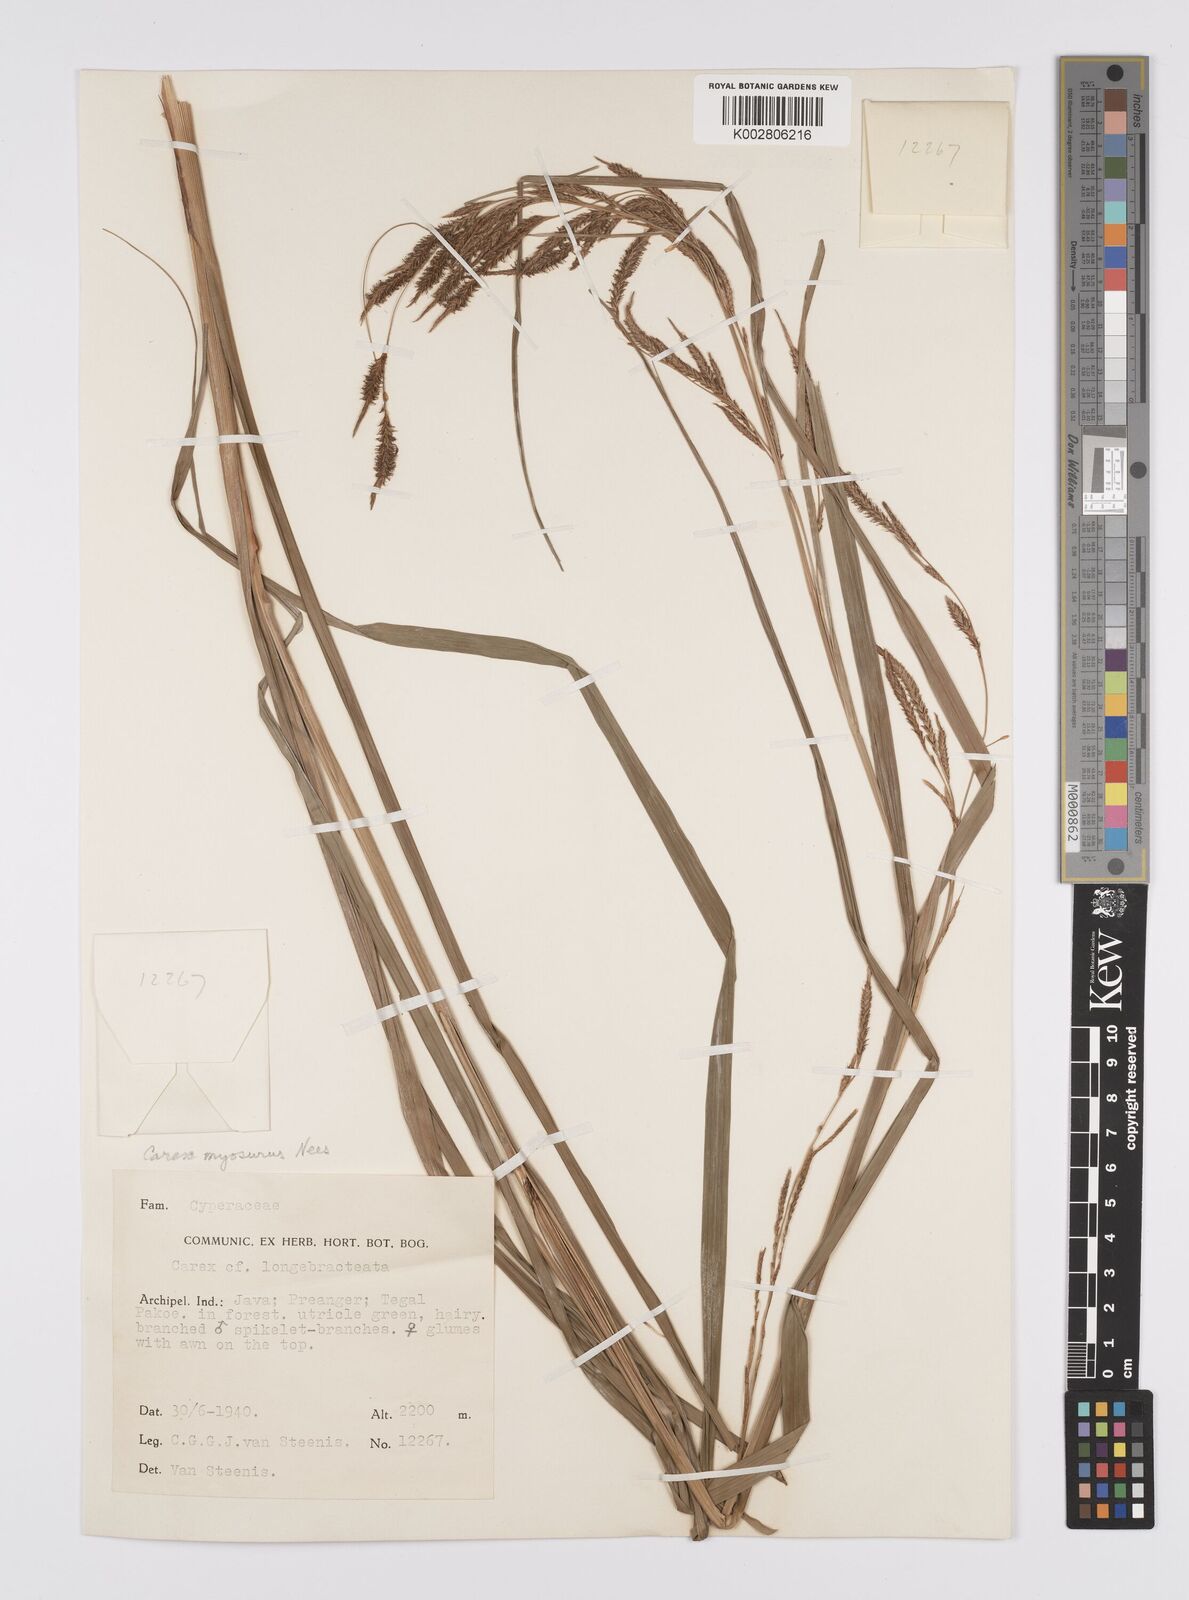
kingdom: Plantae
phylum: Tracheophyta
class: Liliopsida
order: Poales
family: Cyperaceae
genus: Carex
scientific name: Carex myosurus
